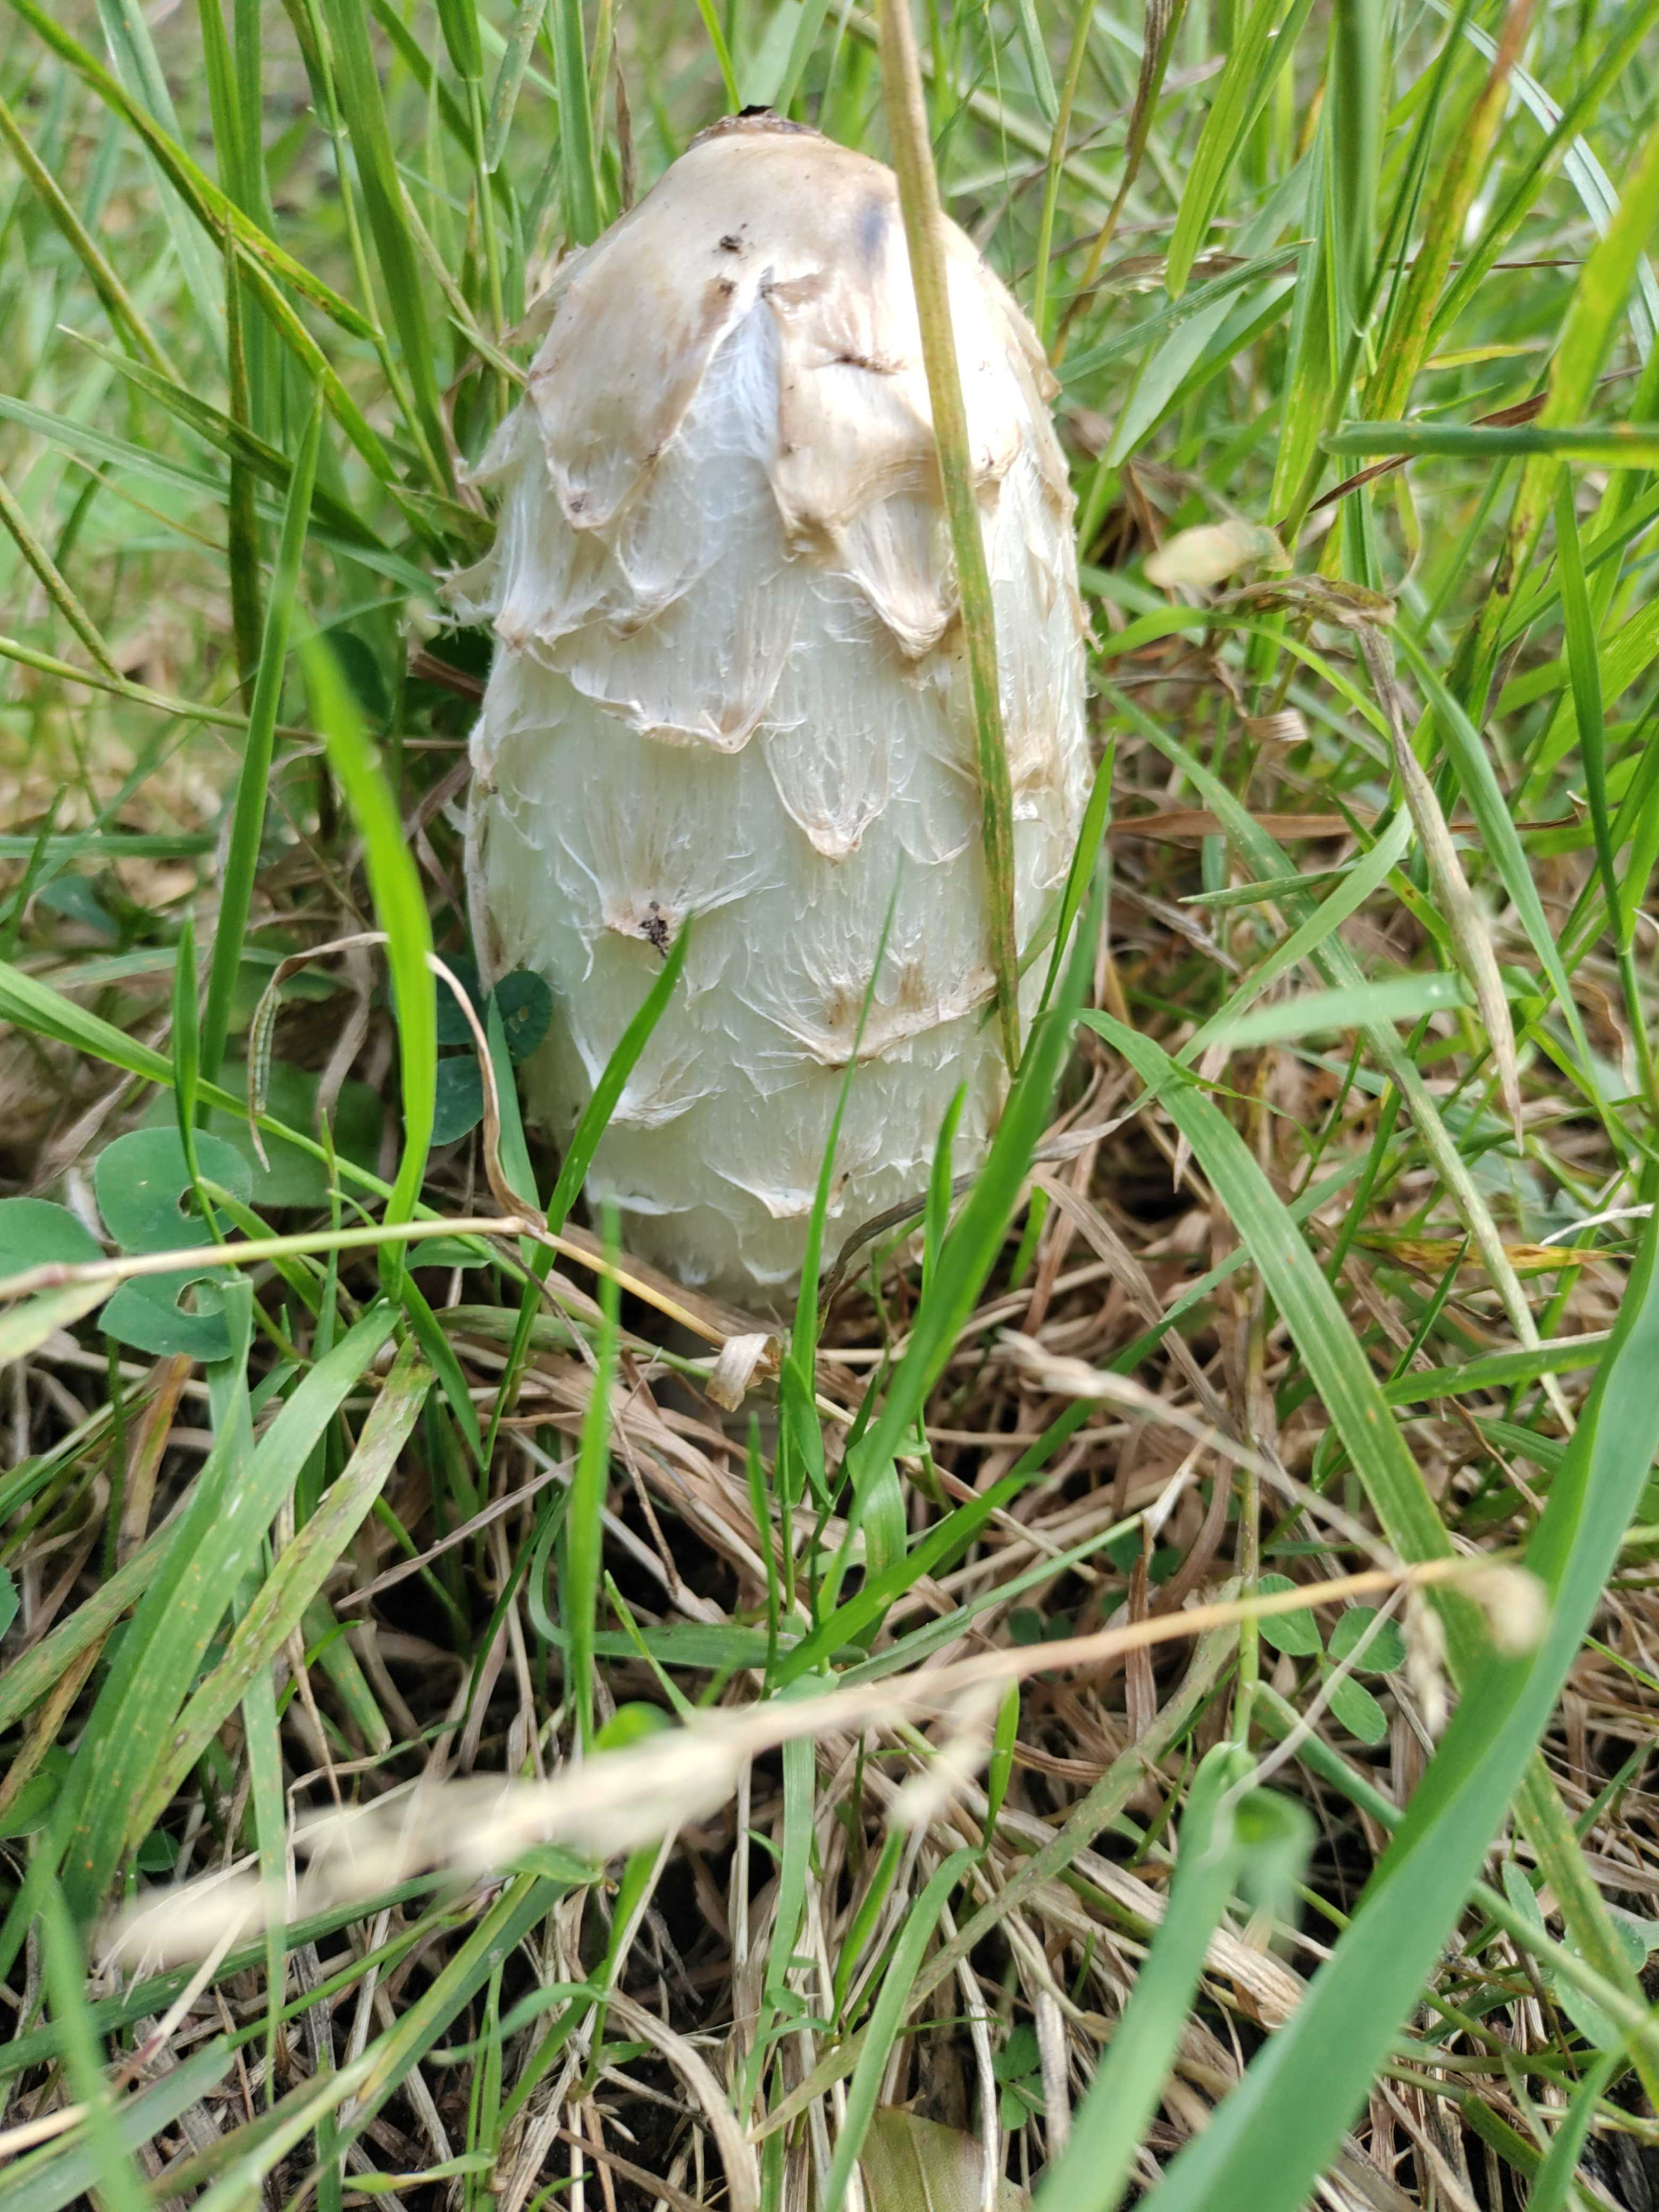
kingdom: Fungi
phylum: Basidiomycota
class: Agaricomycetes
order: Agaricales
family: Agaricaceae
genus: Coprinus
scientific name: Coprinus comatus
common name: stor parykhat
